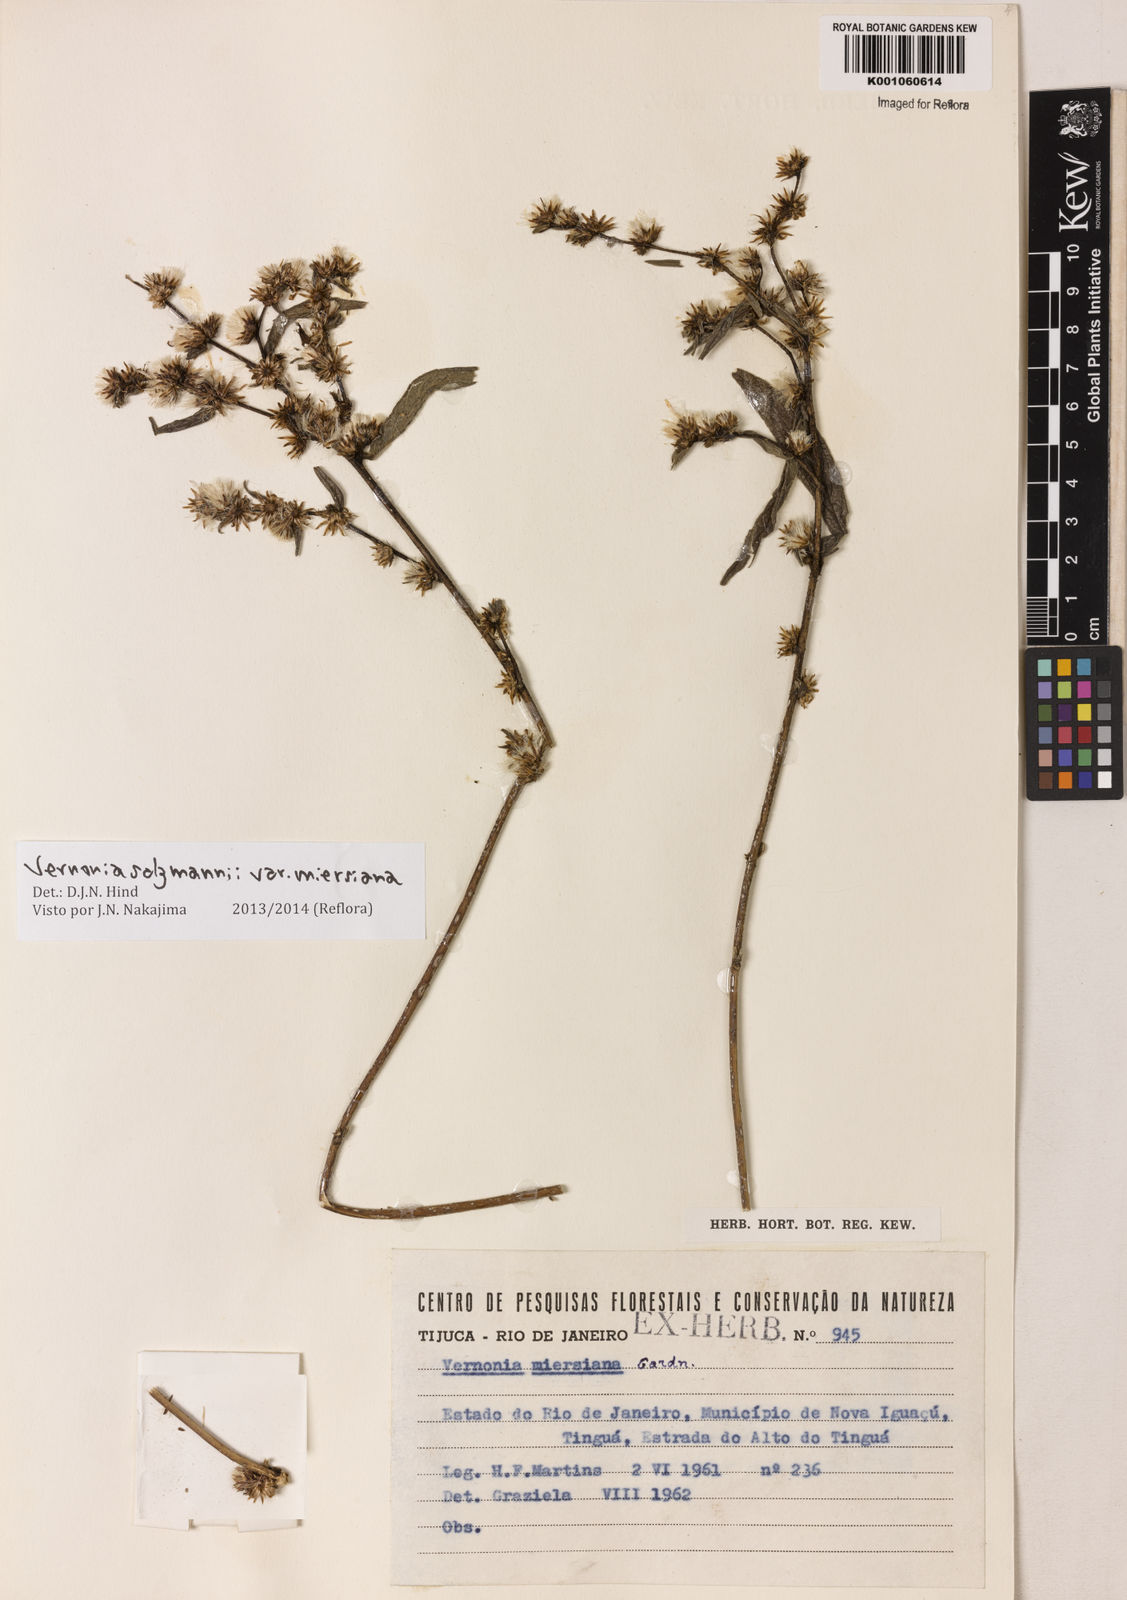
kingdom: Plantae
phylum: Tracheophyta
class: Magnoliopsida
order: Asterales
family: Asteraceae
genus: Lepidaploa
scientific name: Lepidaploa salzmannii
